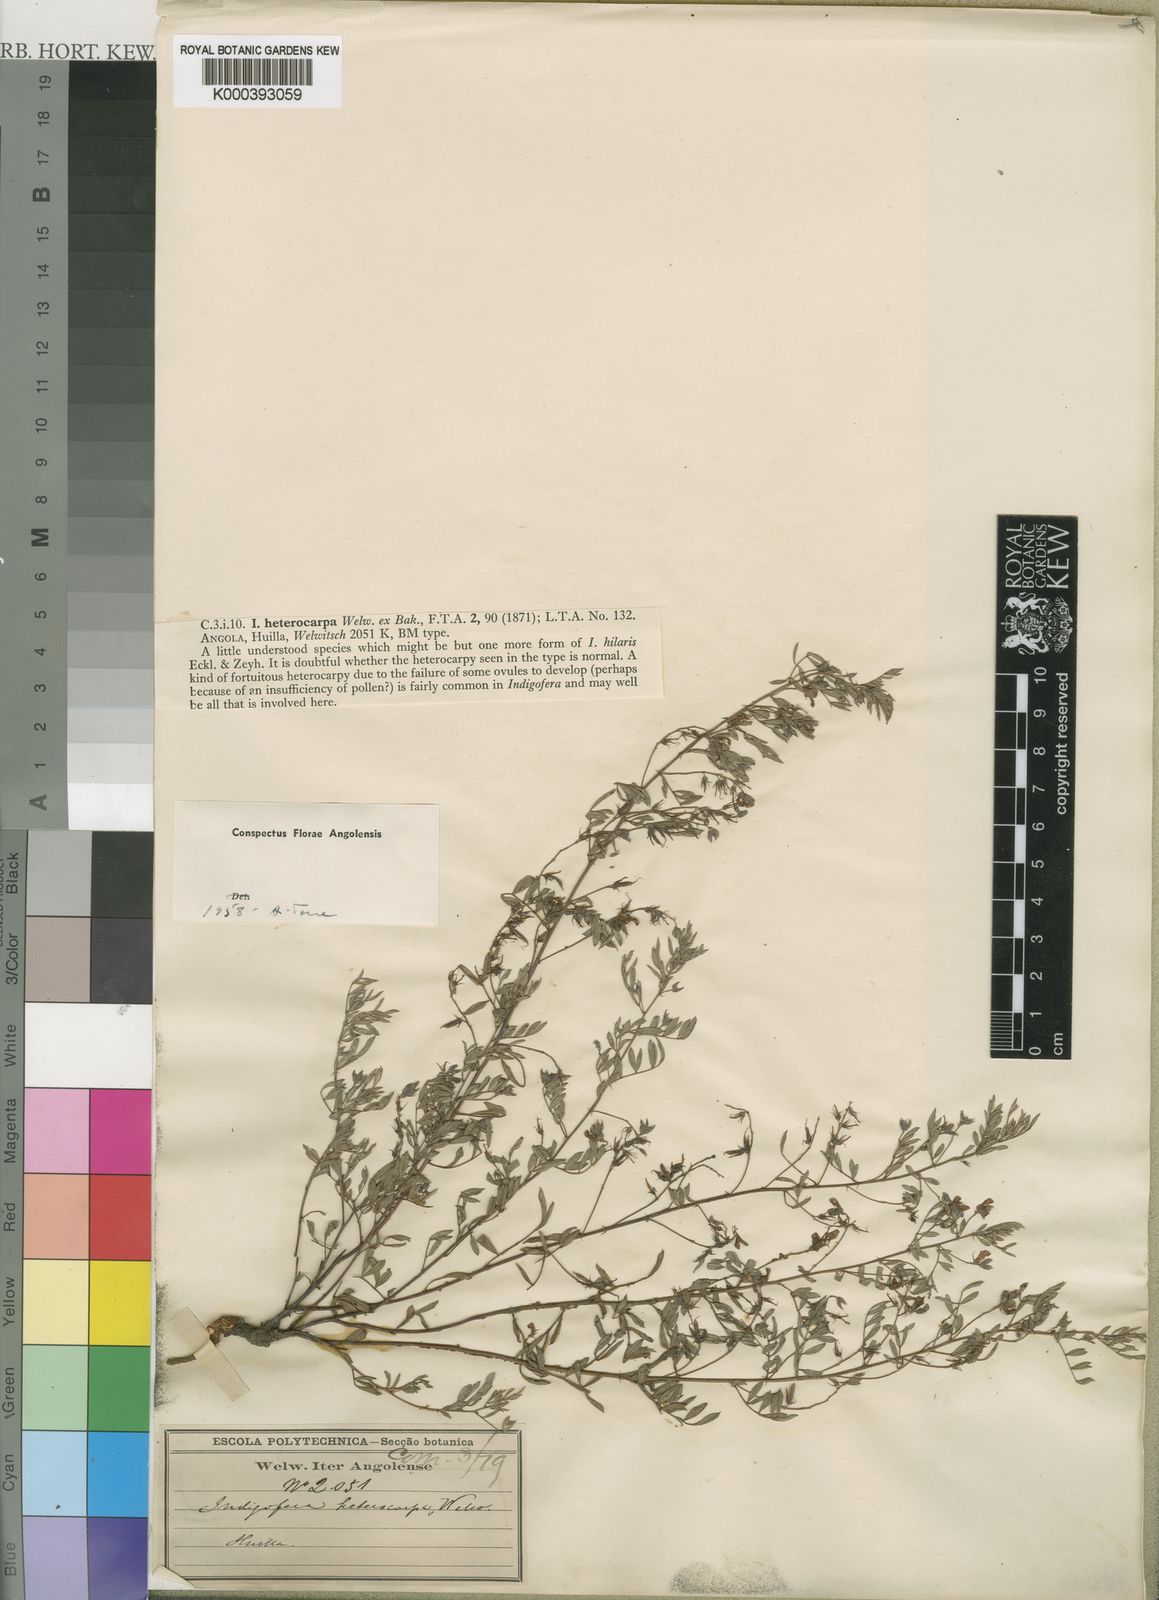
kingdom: Plantae
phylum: Tracheophyta
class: Magnoliopsida
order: Fabales
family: Fabaceae
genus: Indigofera
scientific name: Indigofera heterocarpa
